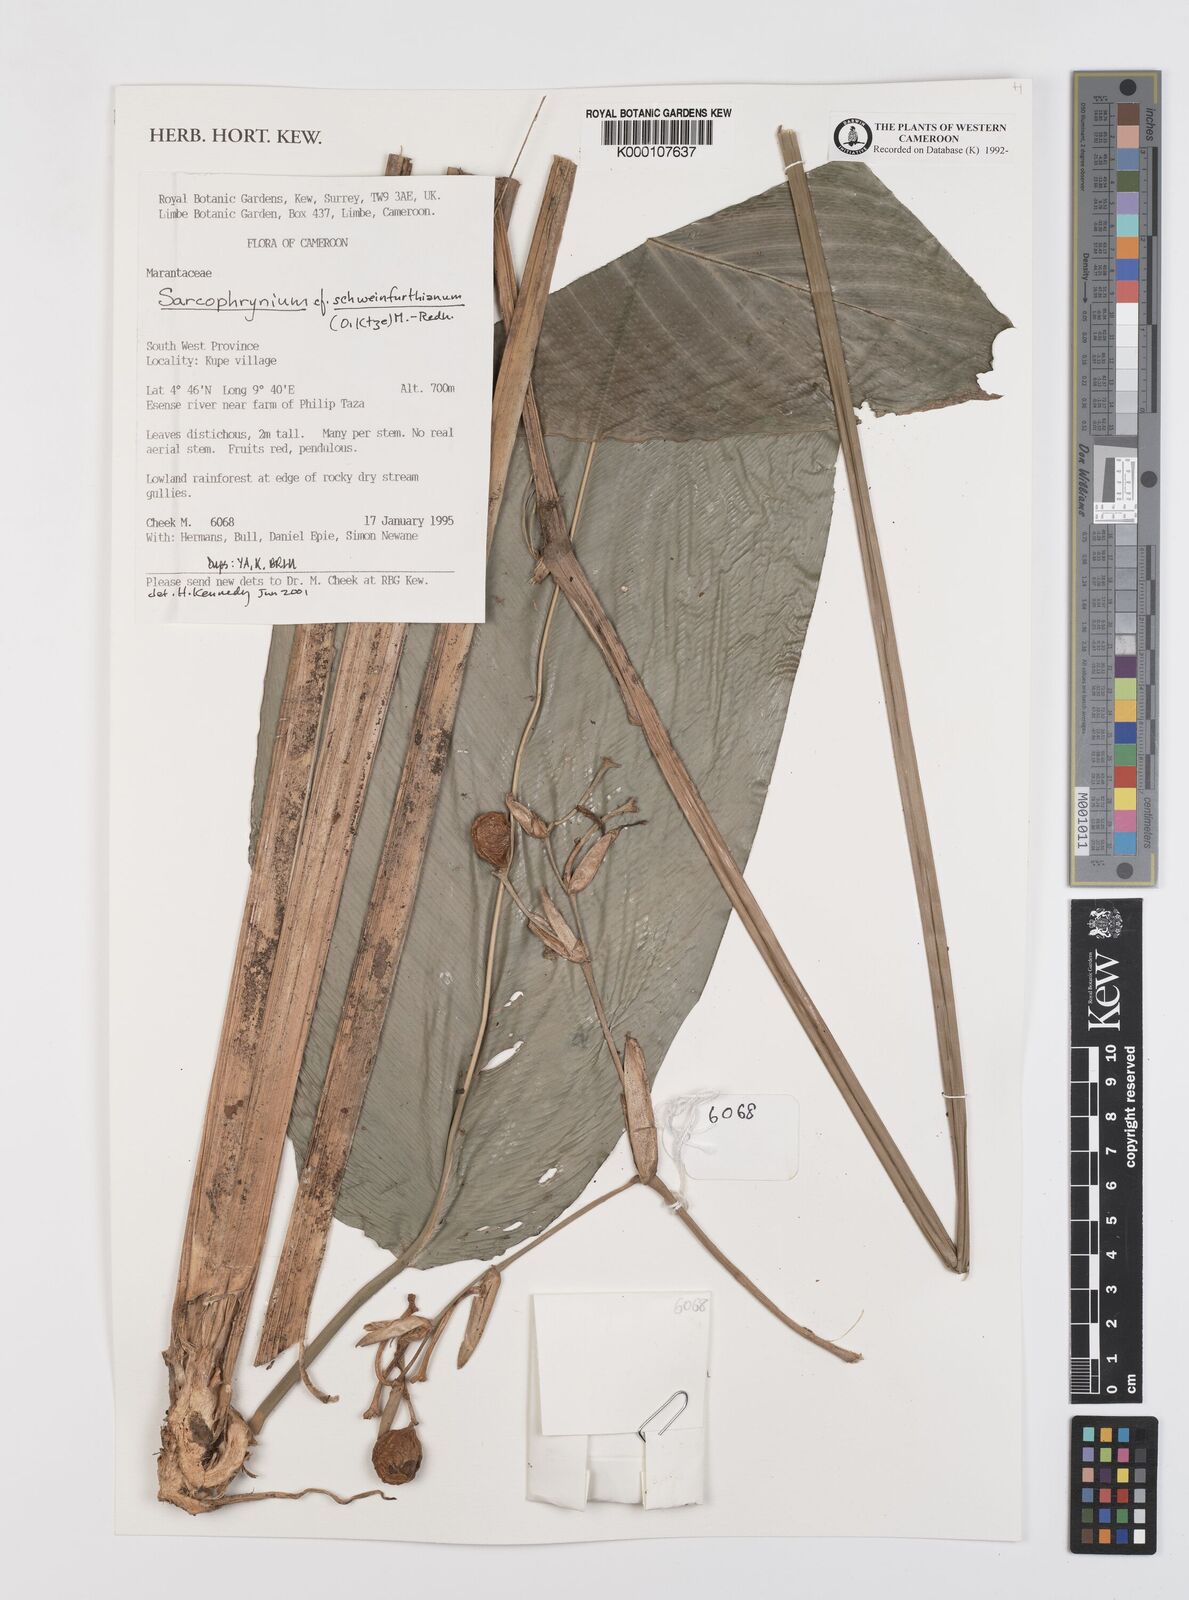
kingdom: Plantae
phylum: Tracheophyta
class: Liliopsida
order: Zingiberales
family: Marantaceae
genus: Sarcophrynium
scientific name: Sarcophrynium schweinfurthianum
